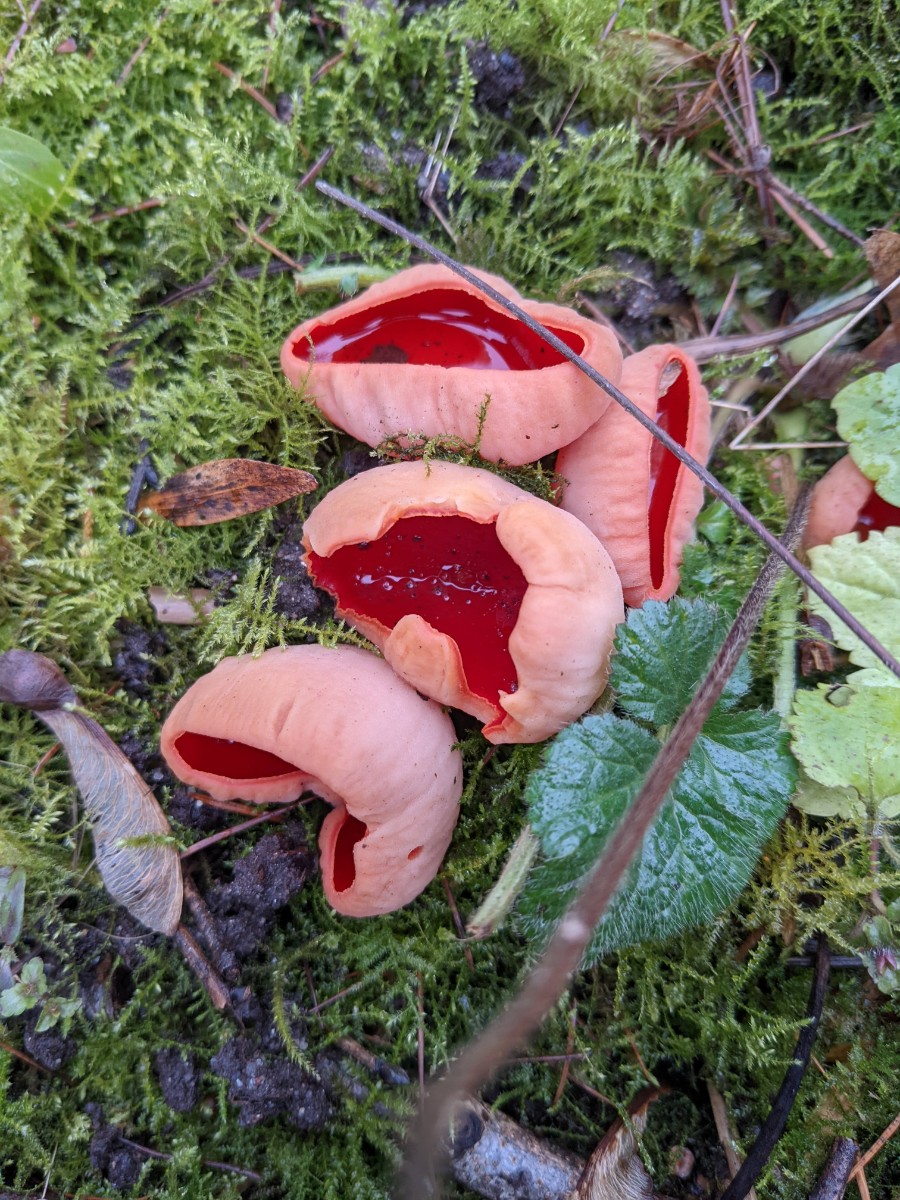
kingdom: Fungi
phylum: Ascomycota
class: Pezizomycetes
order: Pezizales
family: Sarcoscyphaceae
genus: Sarcoscypha
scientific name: Sarcoscypha austriaca
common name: krølhåret pragtbæger
